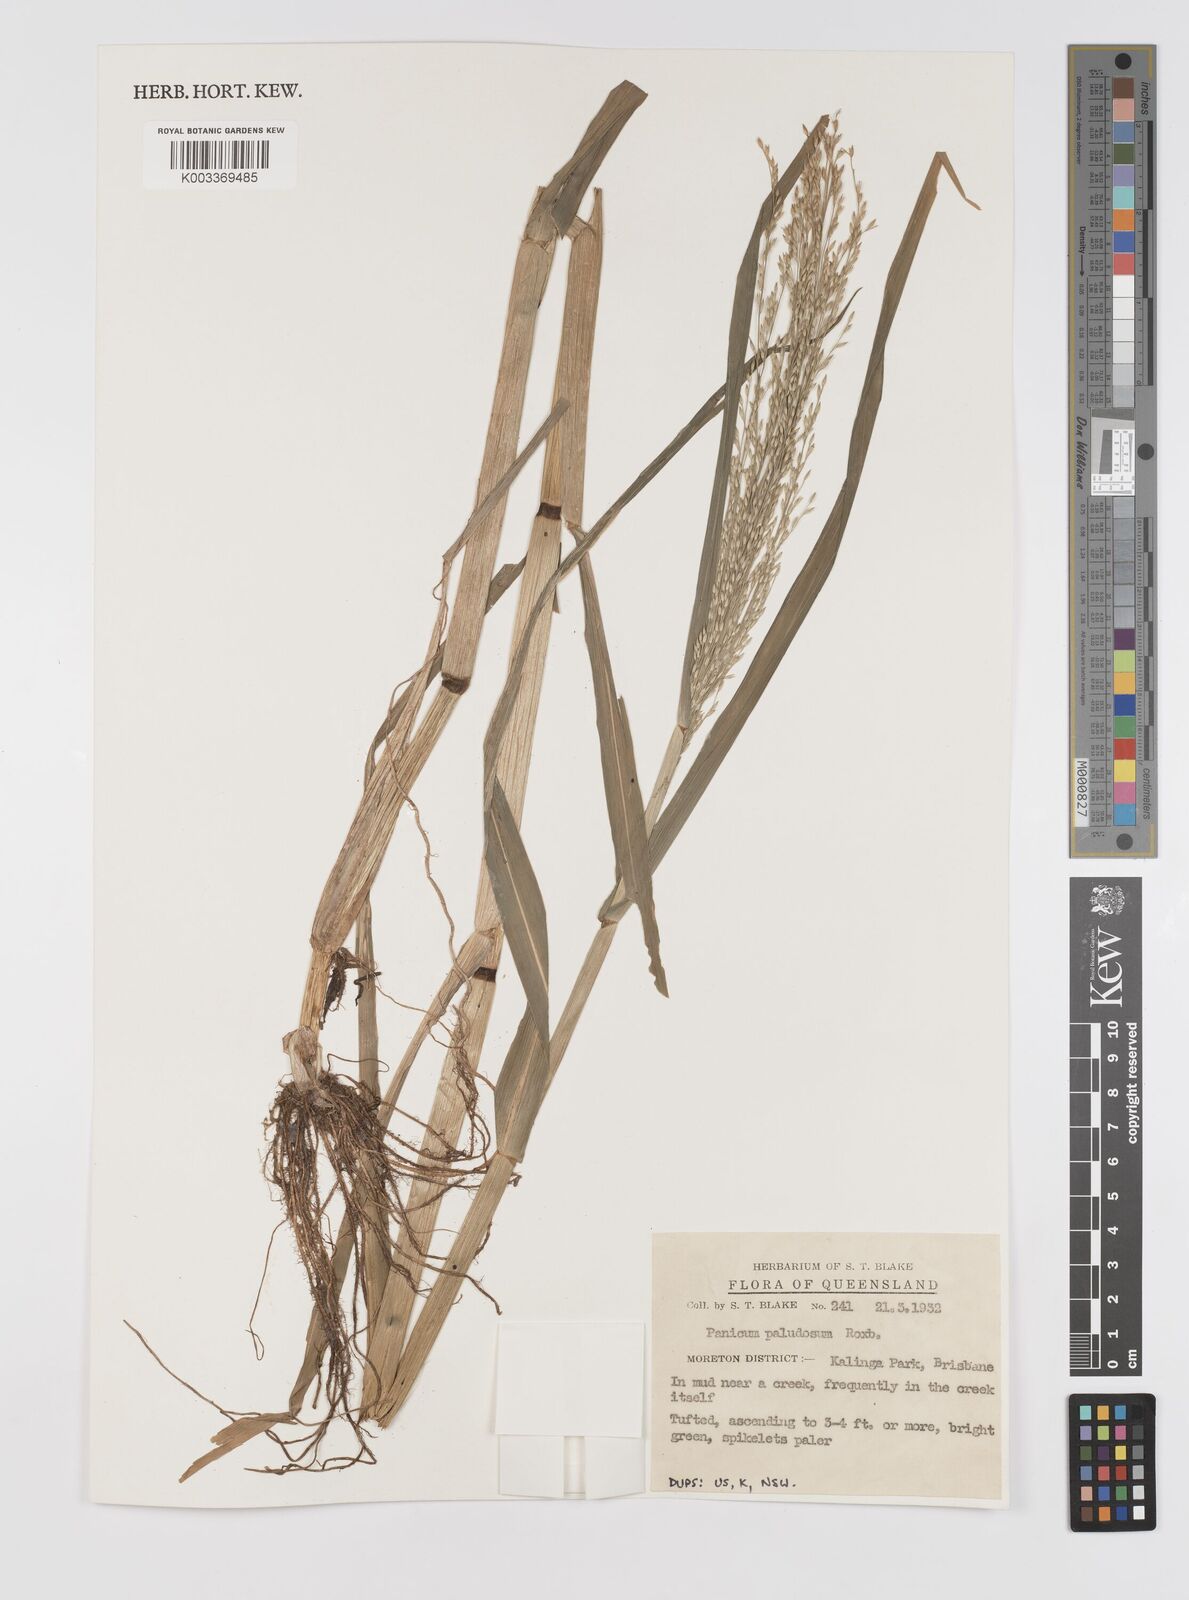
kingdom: Plantae
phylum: Tracheophyta
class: Liliopsida
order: Poales
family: Poaceae
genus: Louisiella
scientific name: Louisiella paludosa
